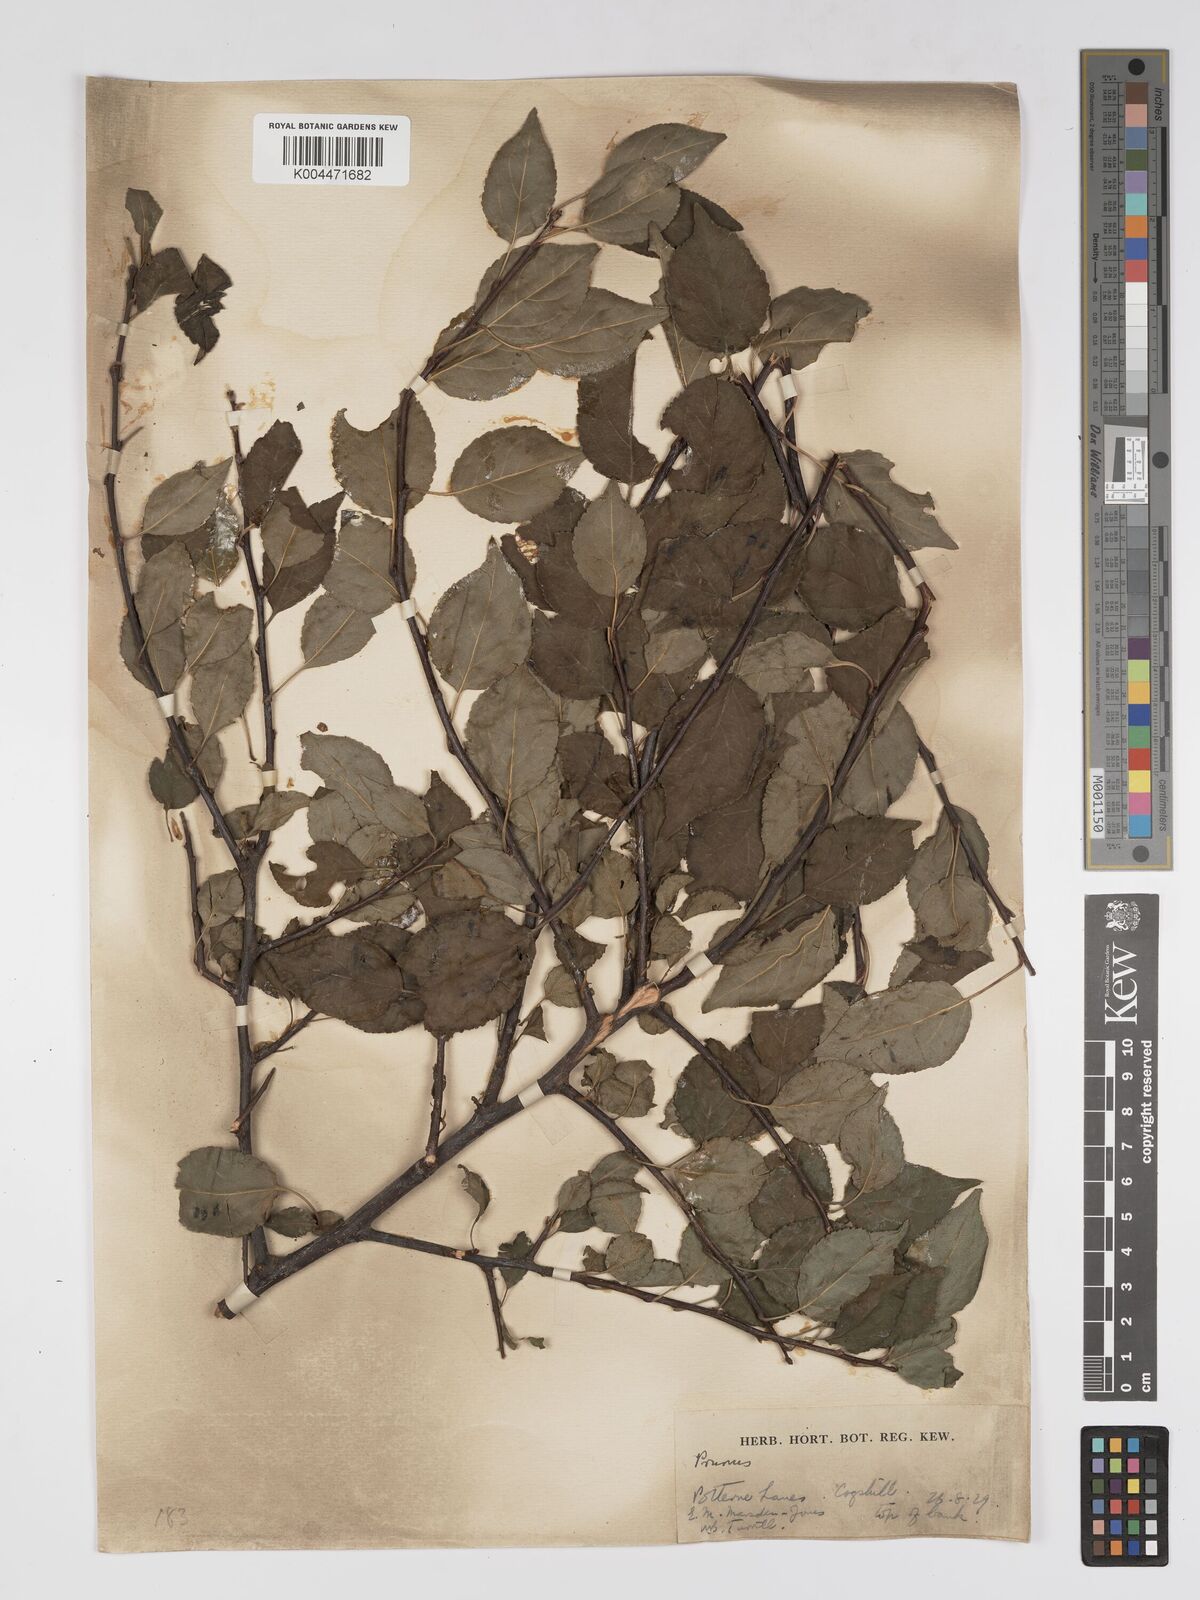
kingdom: Plantae
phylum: Tracheophyta
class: Magnoliopsida
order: Rosales
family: Rosaceae
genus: Prunus
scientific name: Prunus
